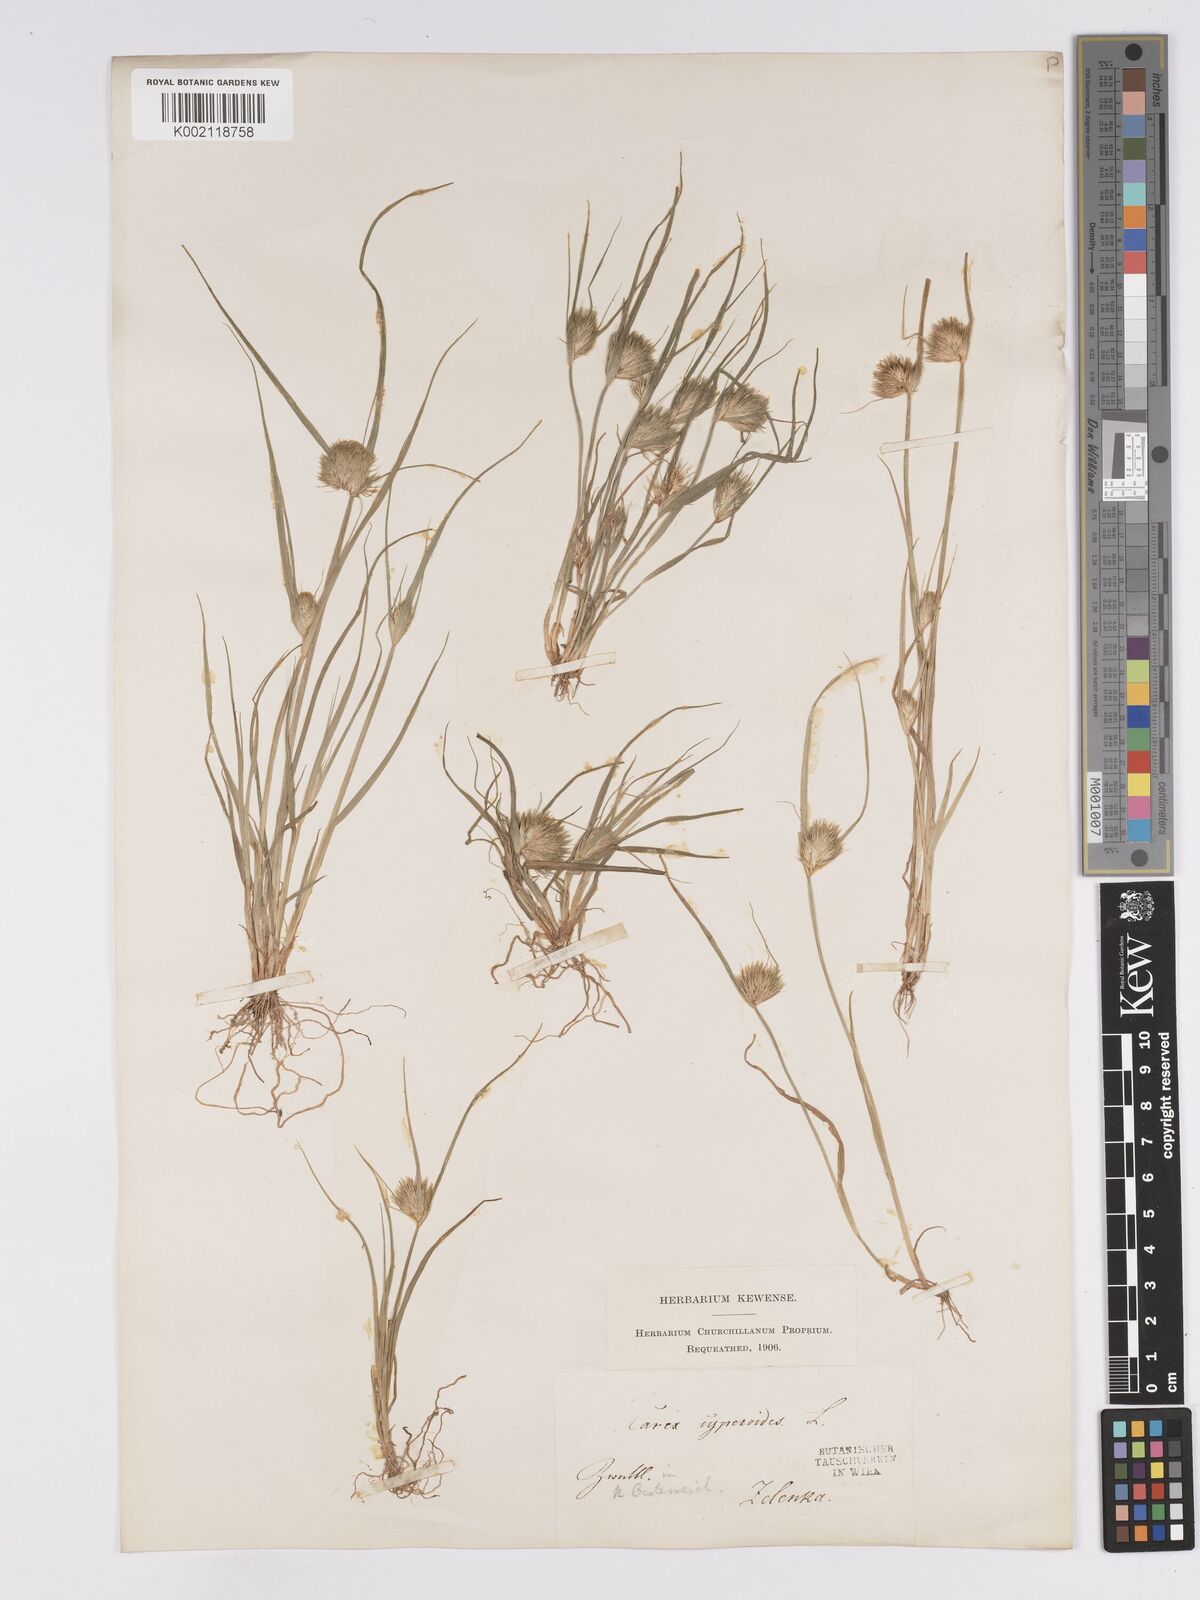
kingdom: Plantae
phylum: Tracheophyta
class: Liliopsida
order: Poales
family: Cyperaceae
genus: Carex
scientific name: Carex bohemica
